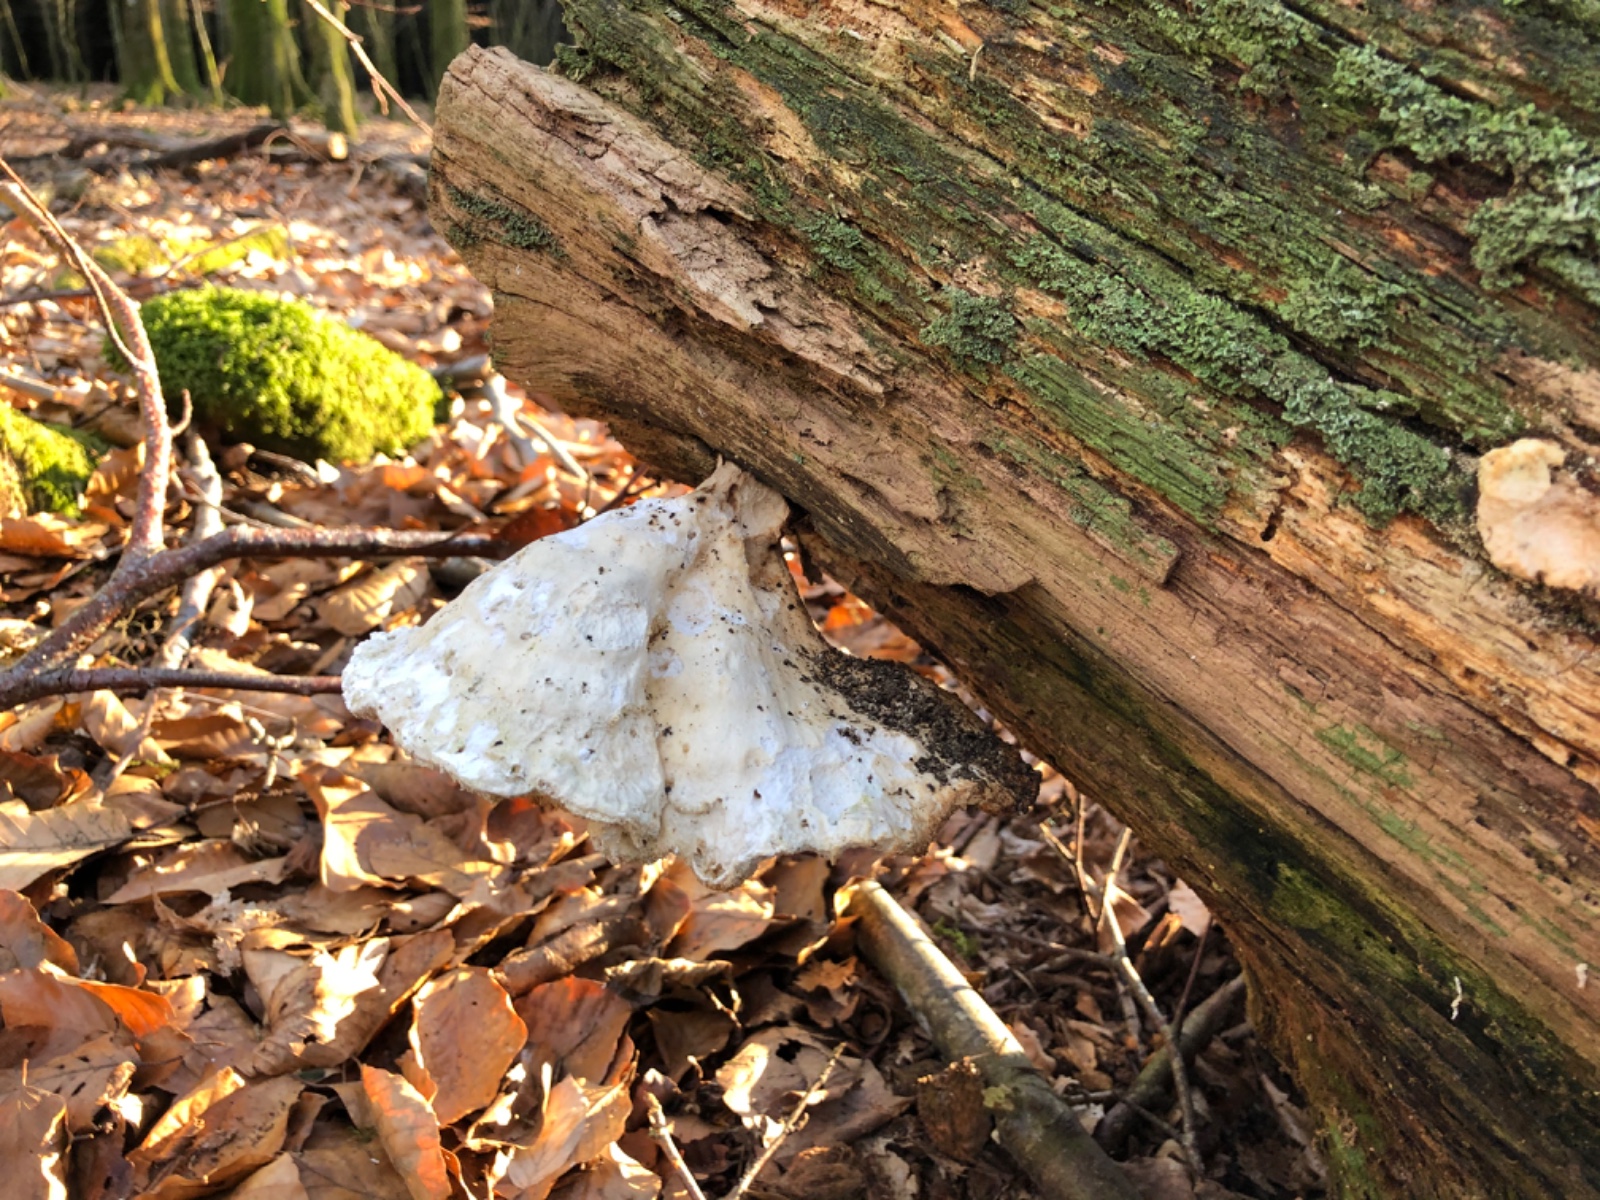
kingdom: Fungi
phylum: Basidiomycota
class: Agaricomycetes
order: Polyporales
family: Laetiporaceae
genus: Laetiporus
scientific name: Laetiporus sulphureus
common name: svovlporesvamp
